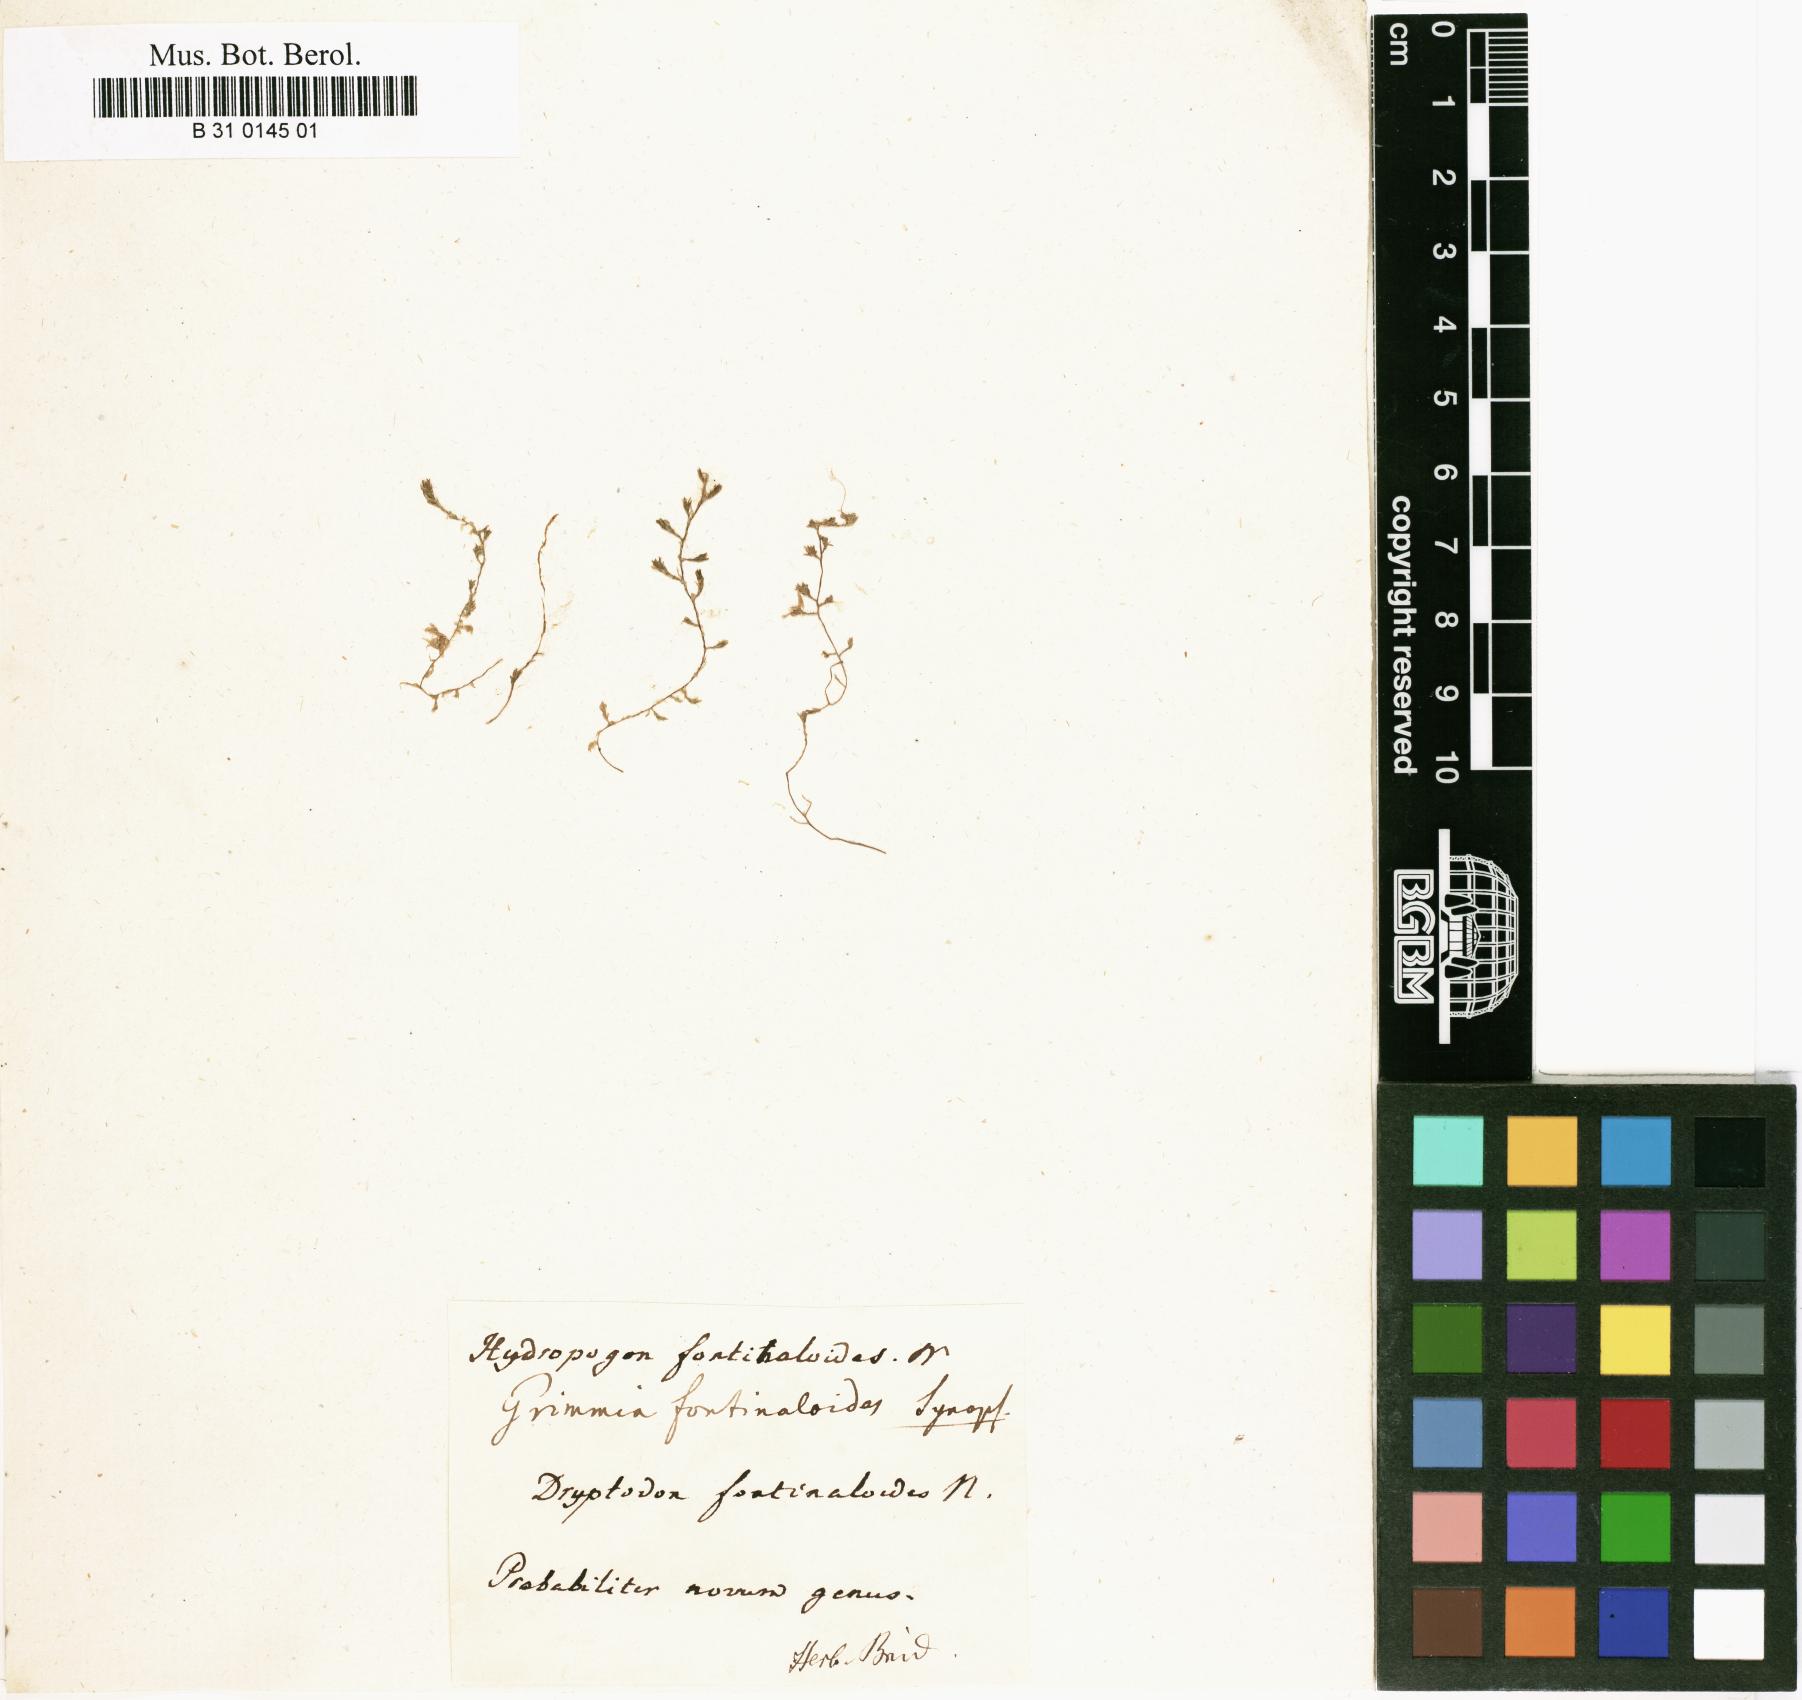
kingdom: Plantae
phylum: Bryophyta
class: Bryopsida
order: Hypnales
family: Sematophyllaceae
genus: Hydropogon
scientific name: Hydropogon fontinaloides
